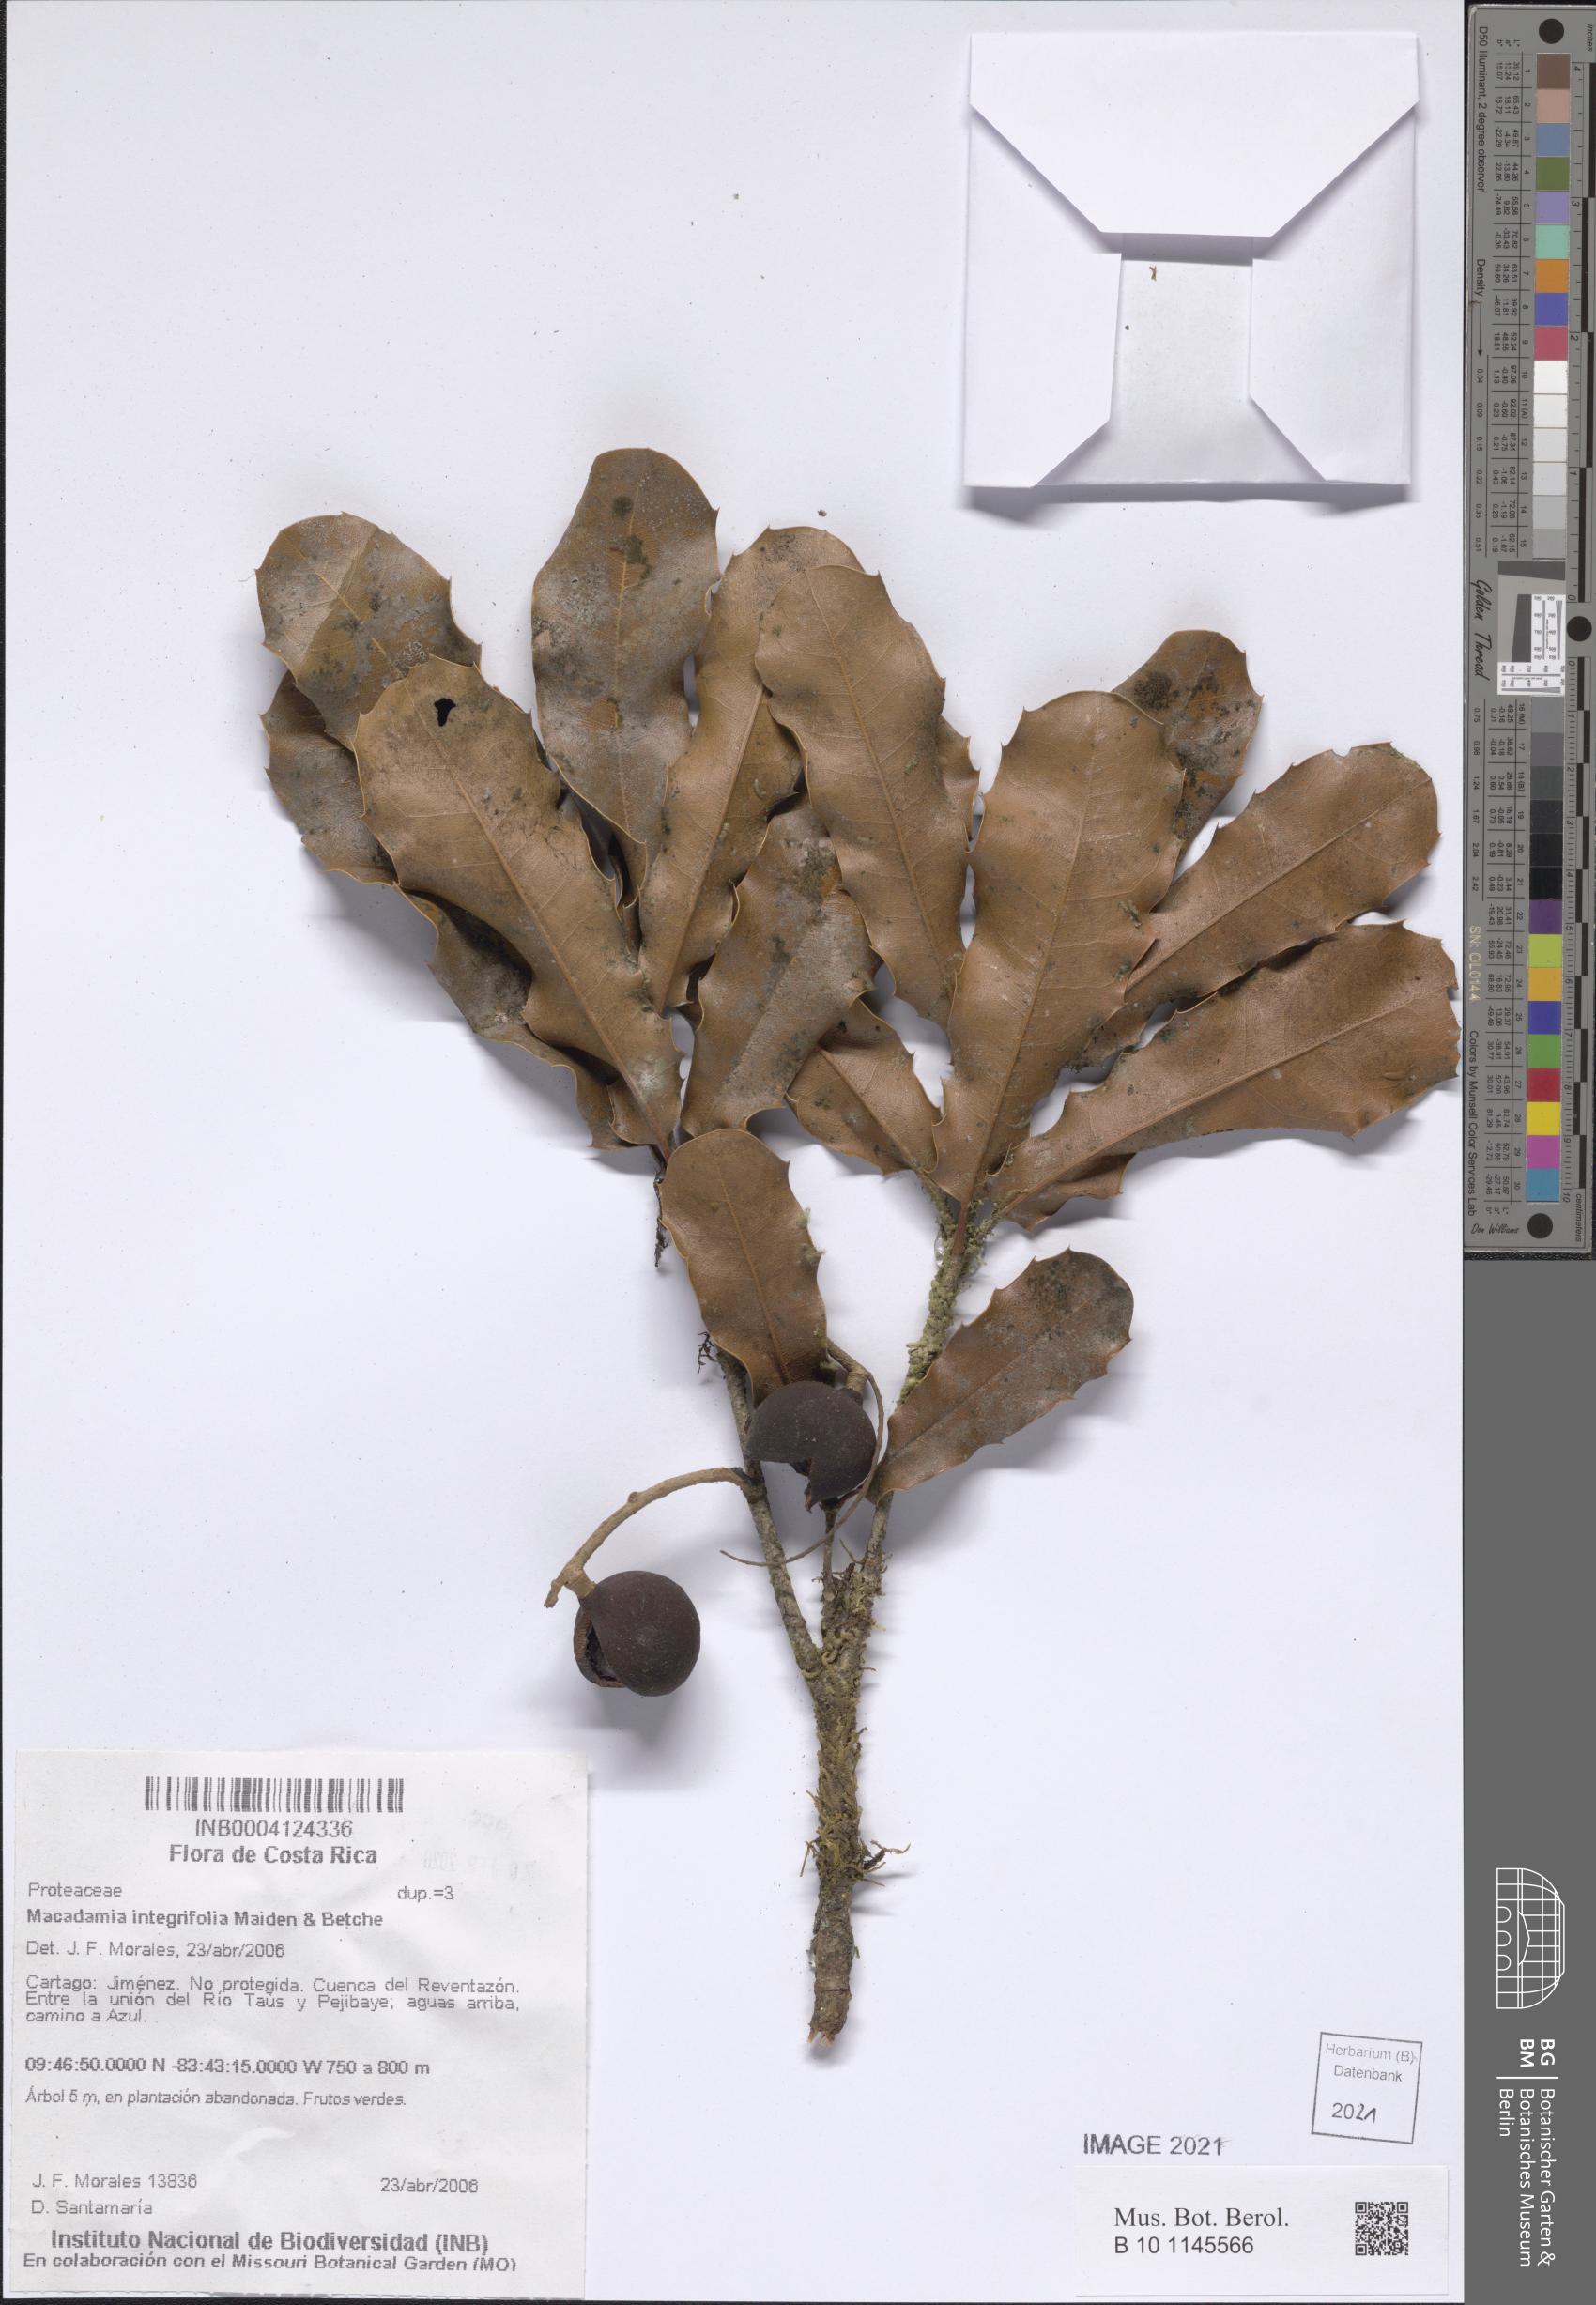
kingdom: Plantae
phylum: Tracheophyta
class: Magnoliopsida
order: Proteales
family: Proteaceae
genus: Macadamia
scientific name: Macadamia integrifolia
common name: Macadamia
